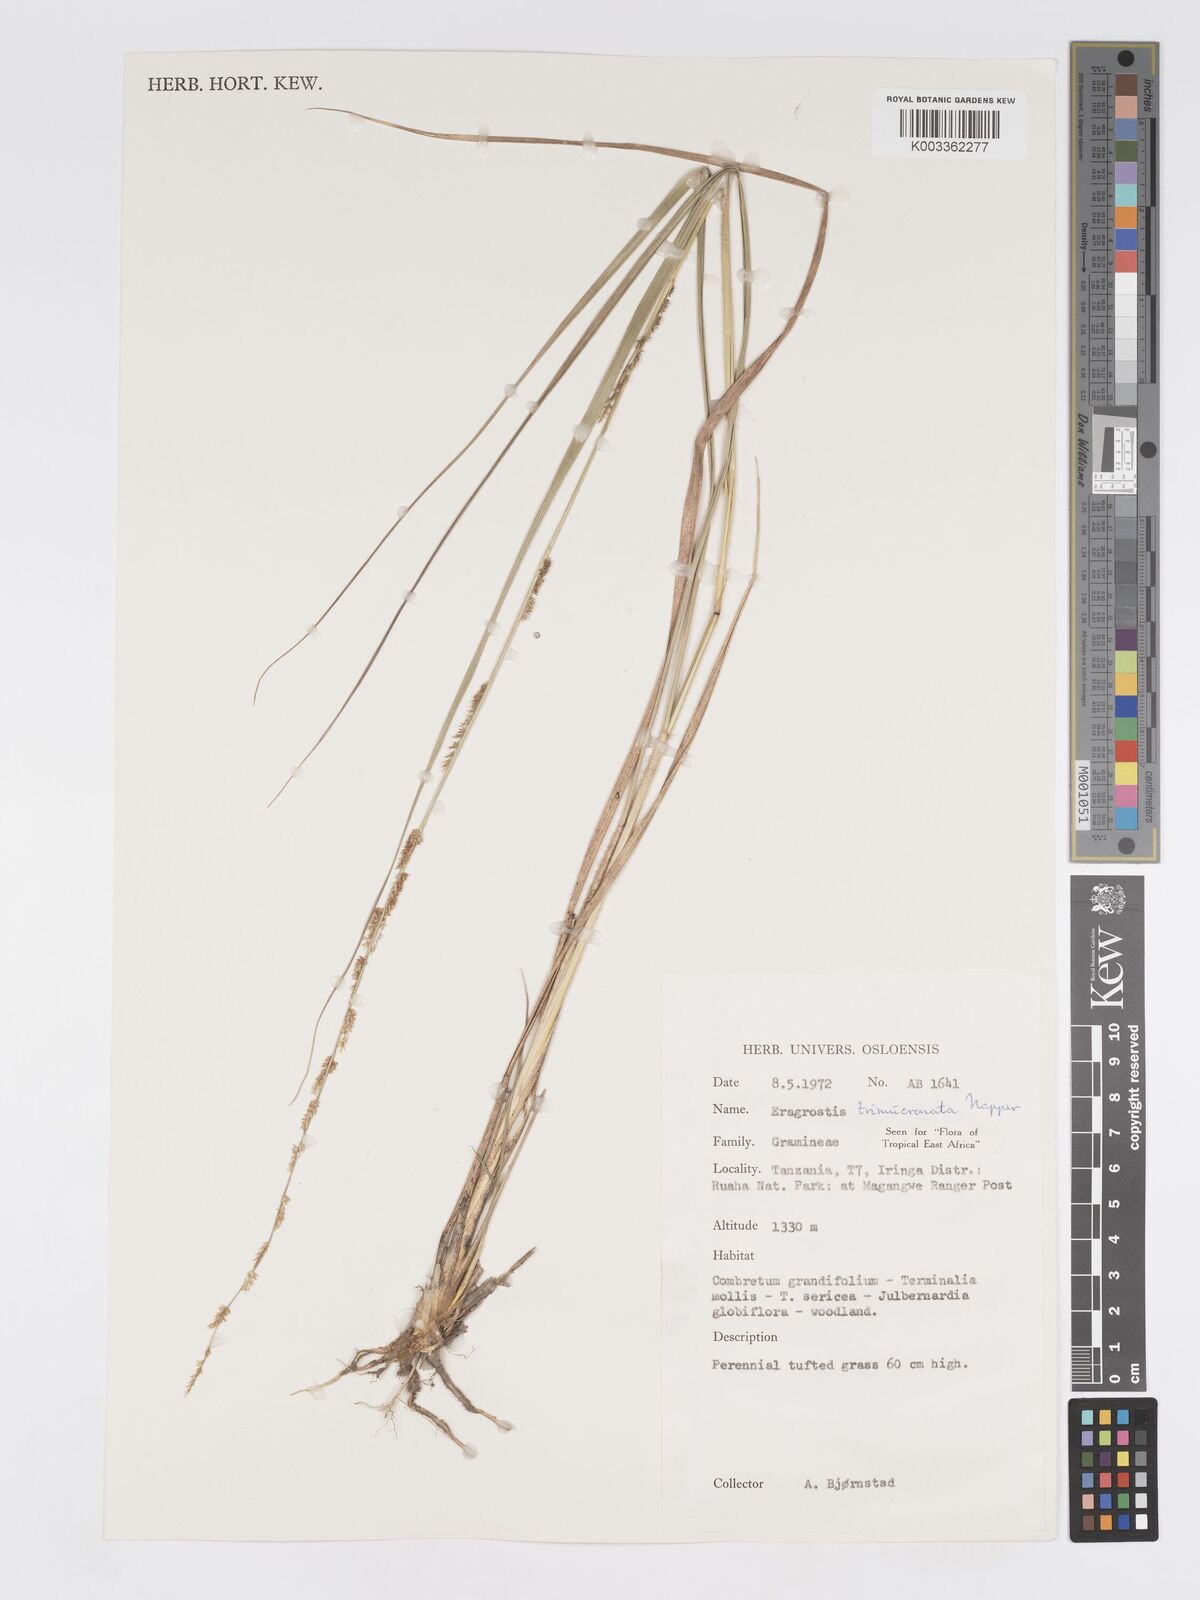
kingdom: Plantae
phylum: Tracheophyta
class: Liliopsida
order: Poales
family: Poaceae
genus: Eragrostis
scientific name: Eragrostis castellaneana
